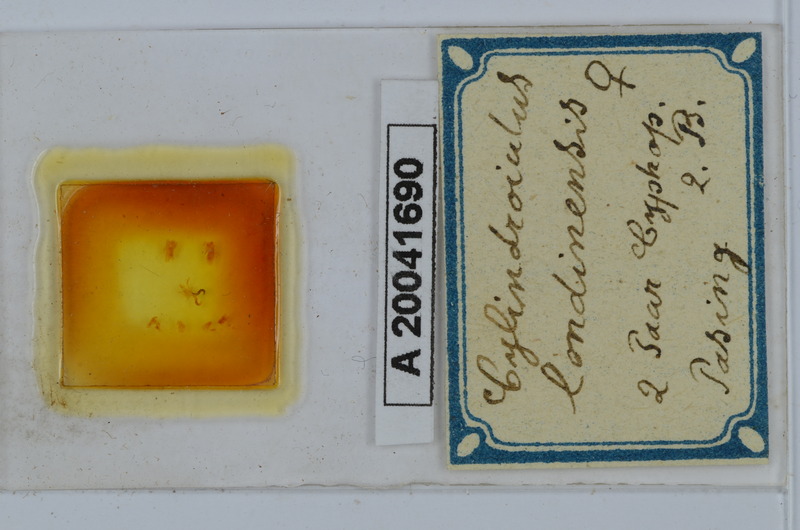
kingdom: Animalia
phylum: Arthropoda
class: Diplopoda
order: Julida
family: Julidae
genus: Cylindroiulus
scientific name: Cylindroiulus londinensis
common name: Black millipede
